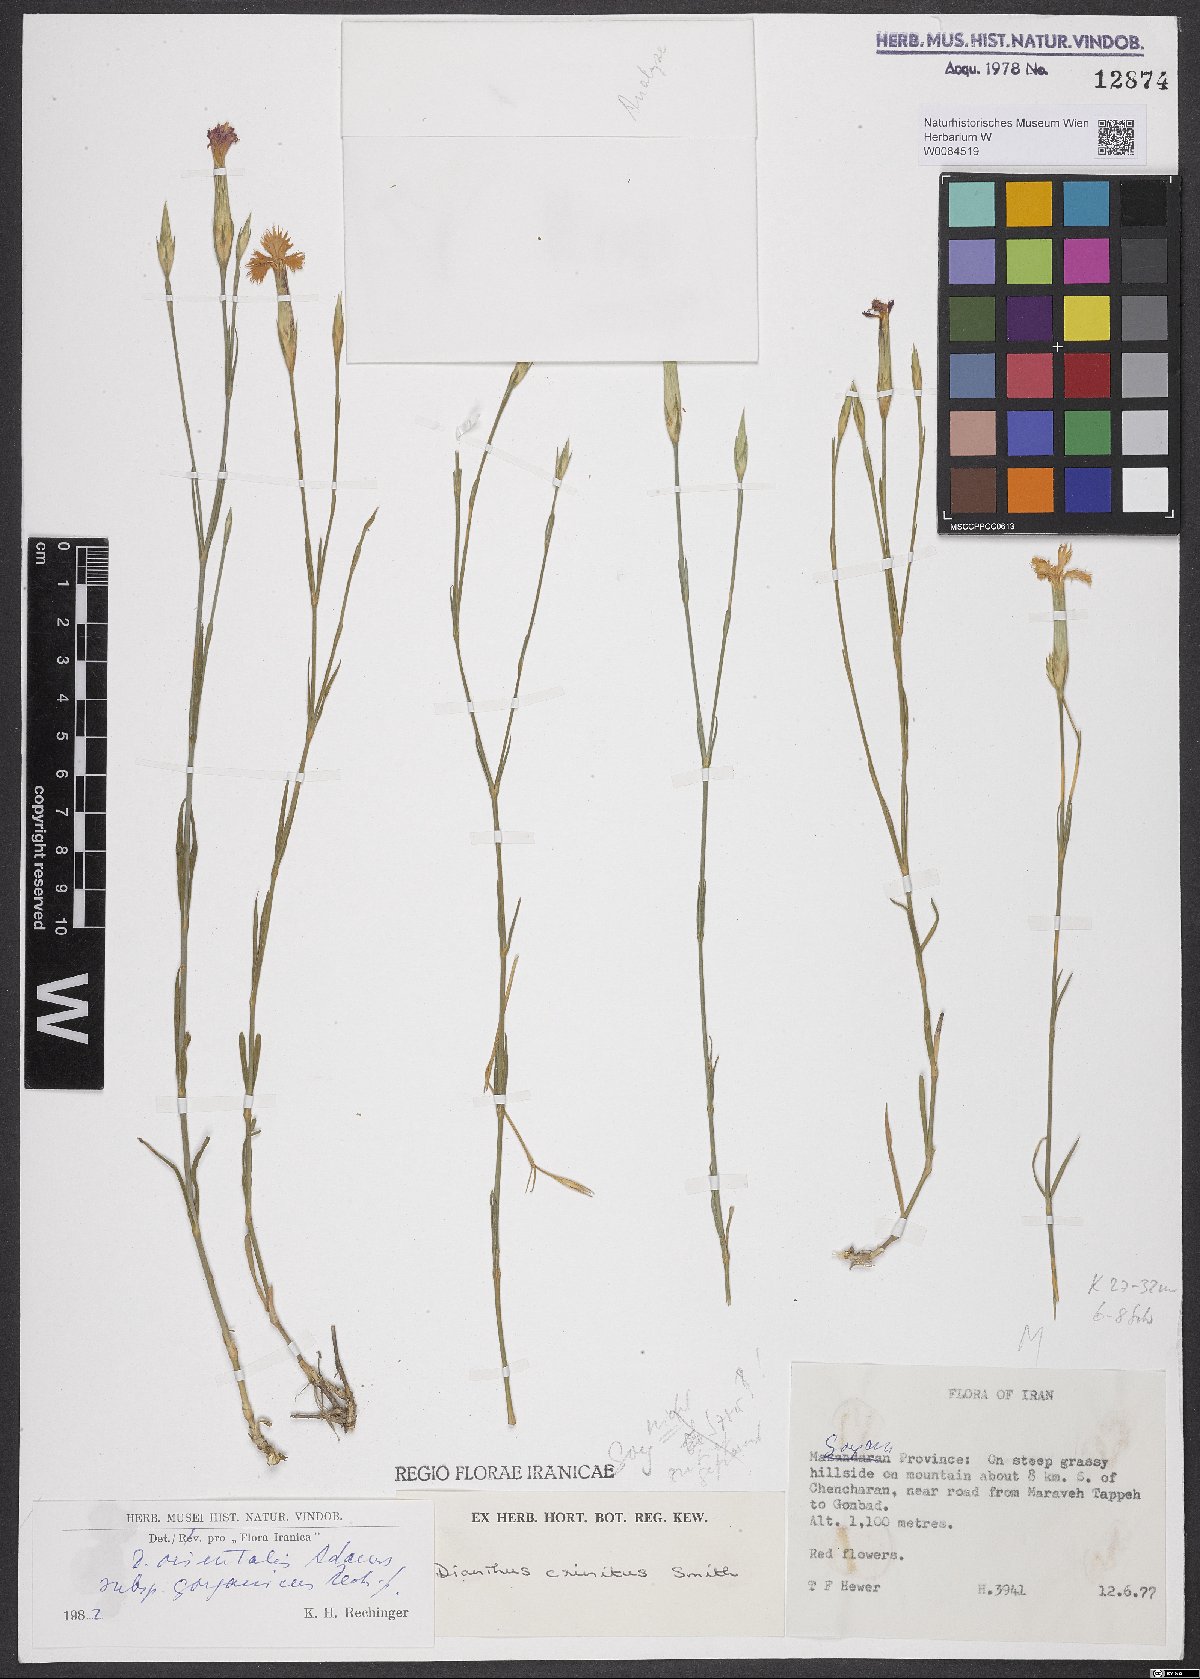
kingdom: Plantae
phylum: Tracheophyta
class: Magnoliopsida
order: Caryophyllales
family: Caryophyllaceae
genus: Dianthus
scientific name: Dianthus orientalis
